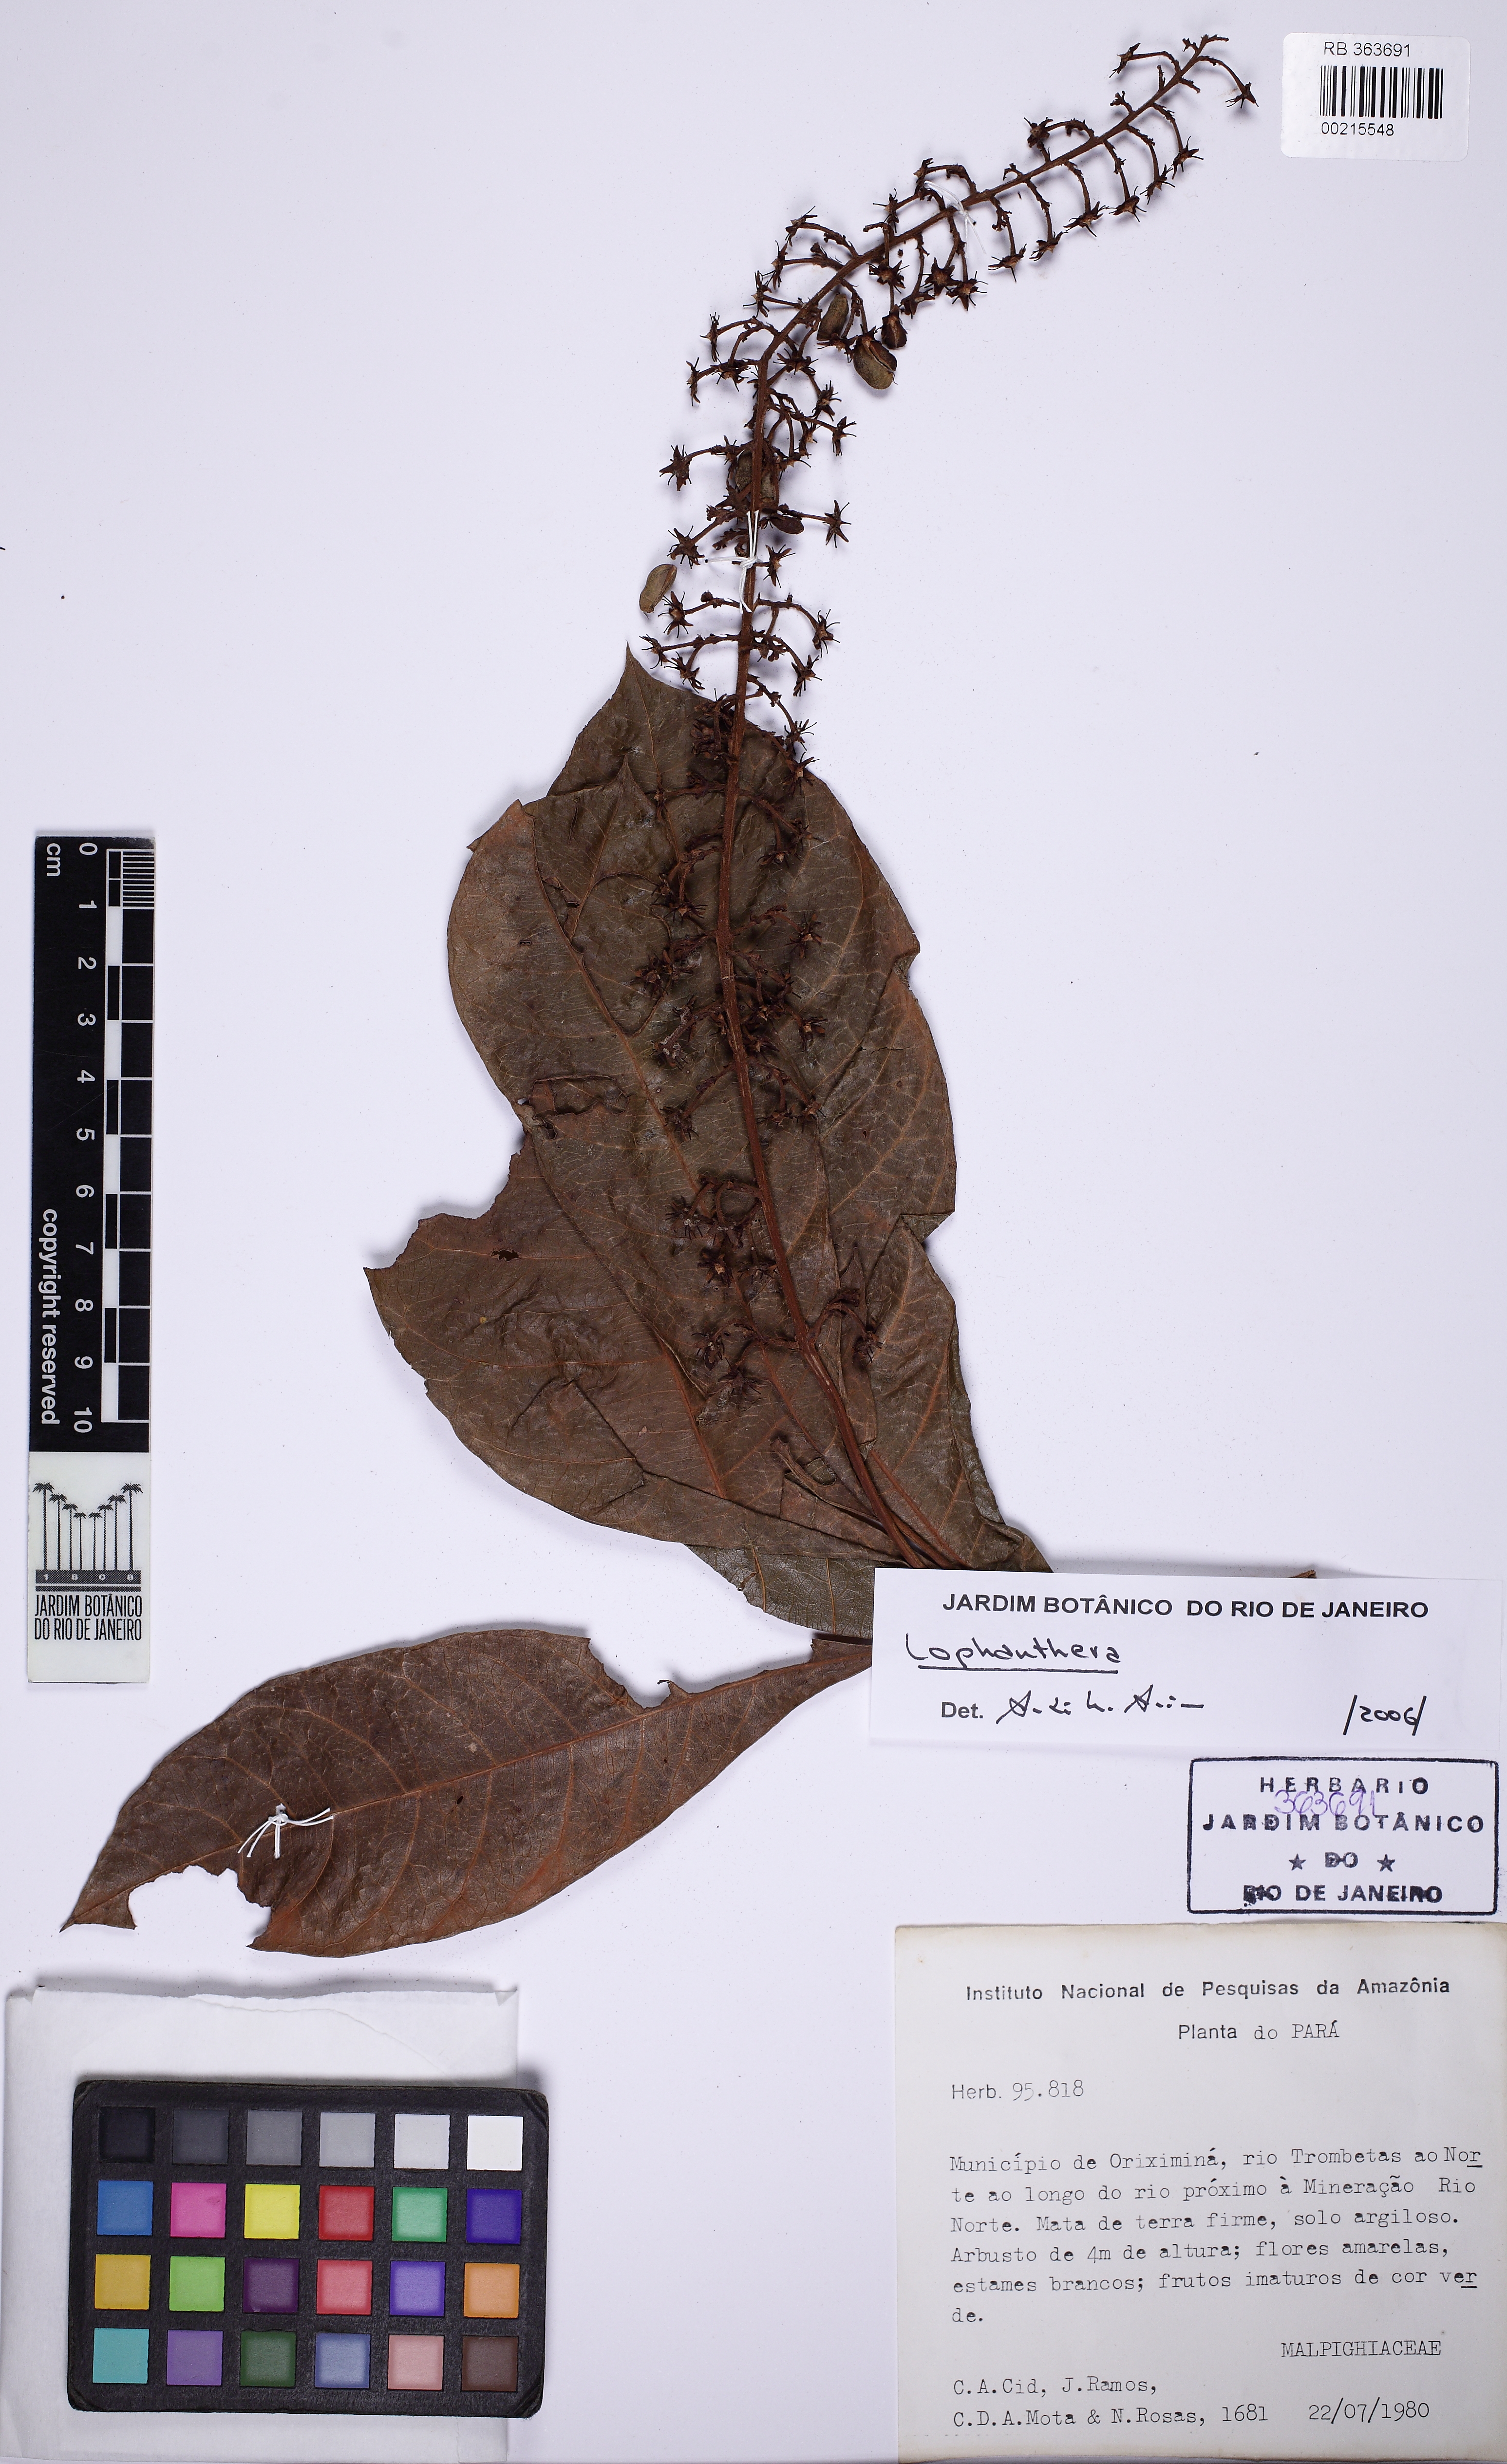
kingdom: Plantae
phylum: Tracheophyta
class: Magnoliopsida
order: Malpighiales
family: Malpighiaceae
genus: Lophanthera
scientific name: Lophanthera
